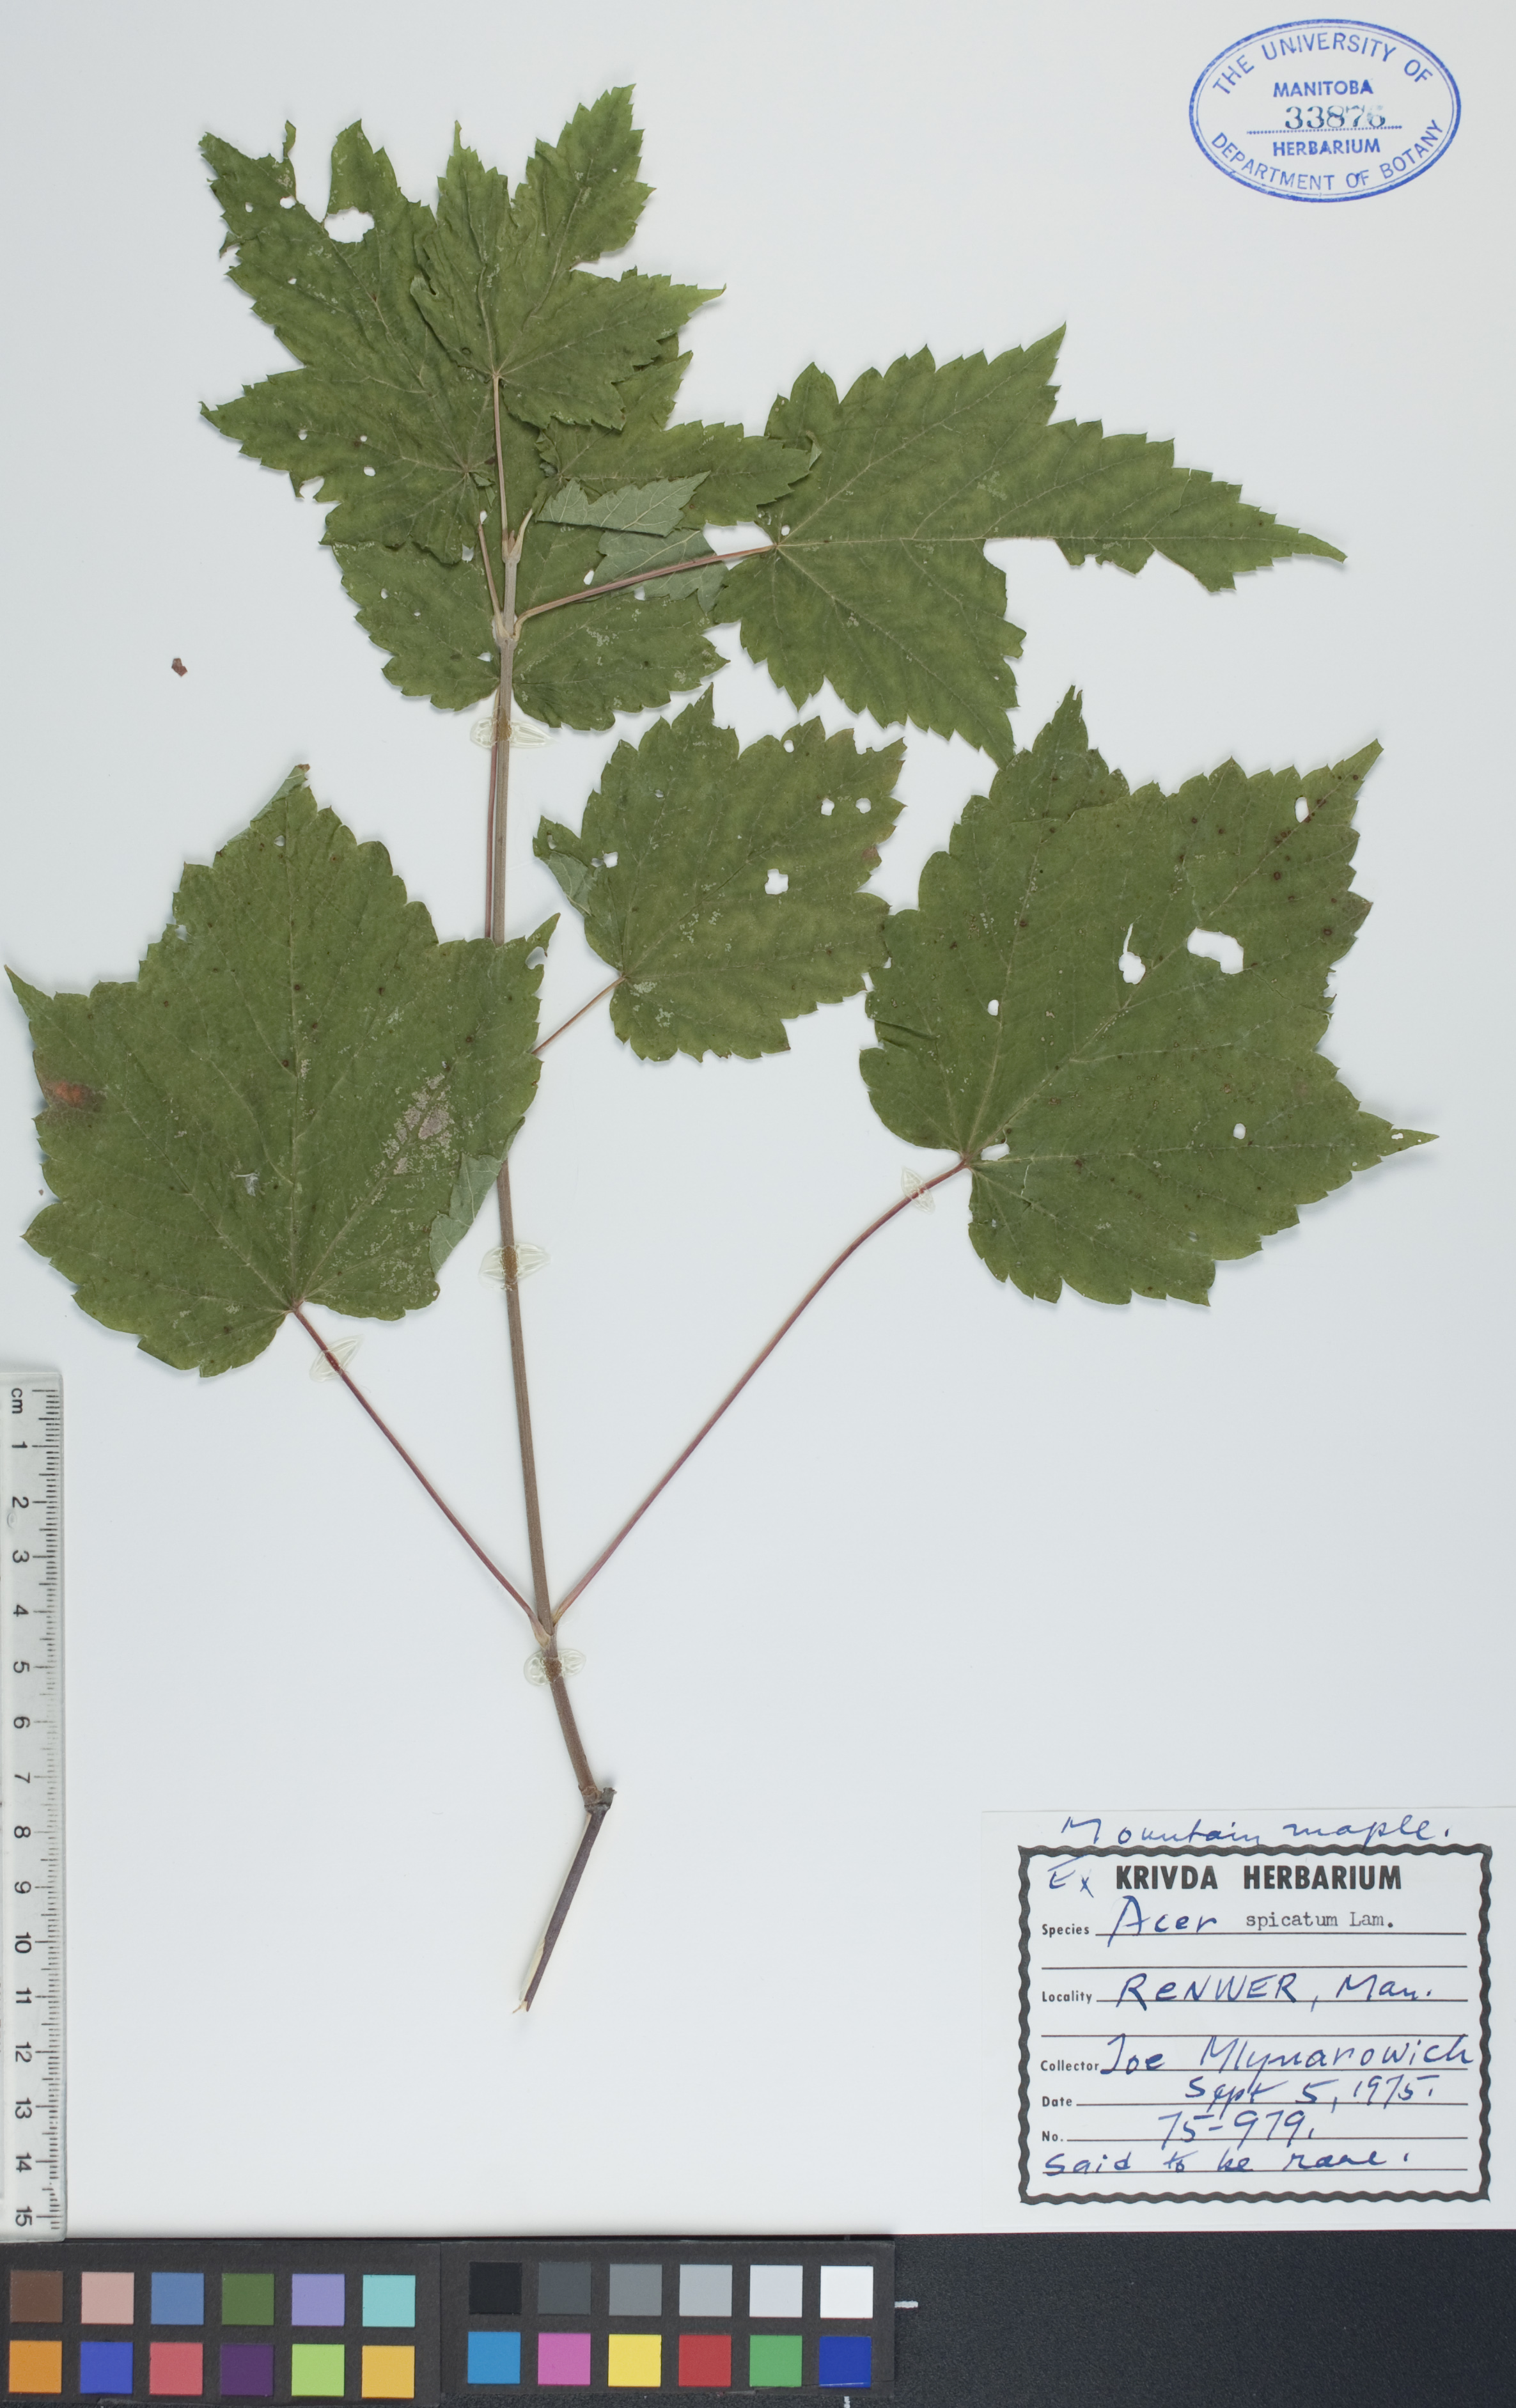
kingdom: Plantae
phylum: Tracheophyta
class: Magnoliopsida
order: Sapindales
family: Sapindaceae
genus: Acer
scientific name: Acer spicatum
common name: Mountain maple
